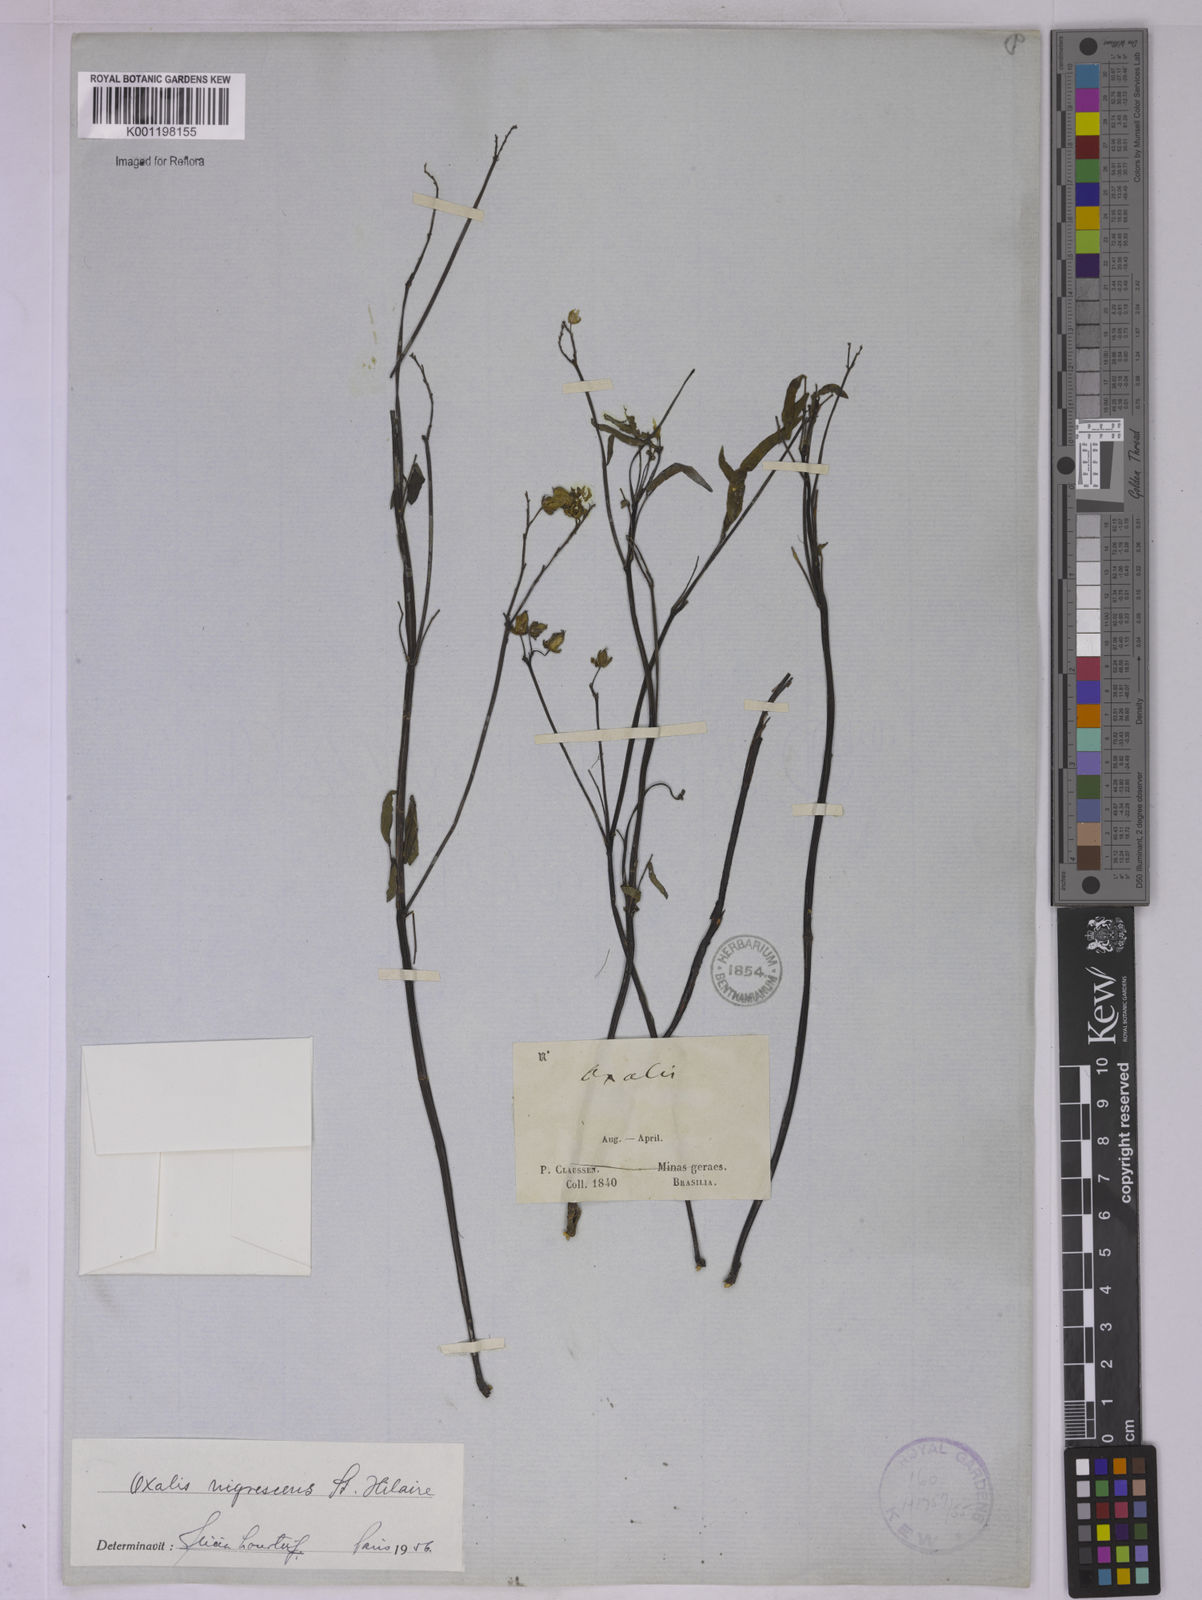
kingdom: Plantae
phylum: Tracheophyta
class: Magnoliopsida
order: Oxalidales
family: Oxalidaceae
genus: Oxalis
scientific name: Oxalis nigrescens
